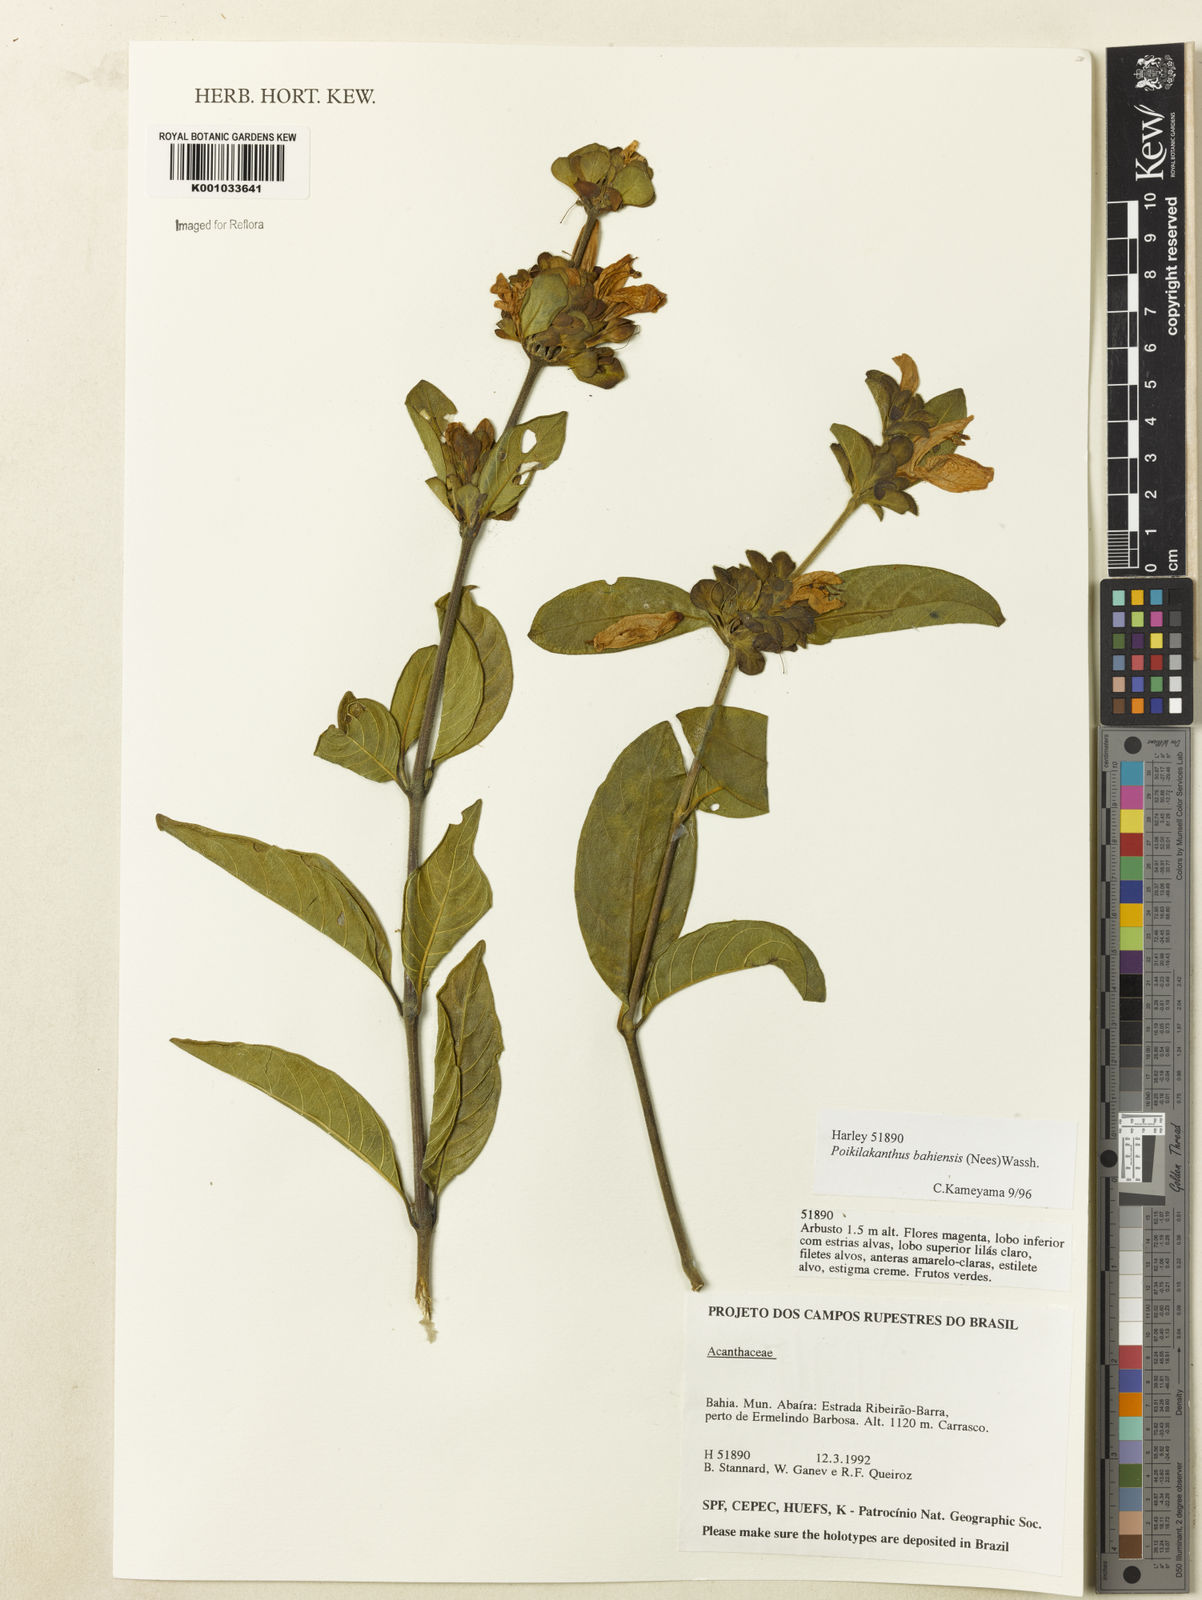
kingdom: Plantae
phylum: Tracheophyta
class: Magnoliopsida
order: Lamiales
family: Acanthaceae
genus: Poikilacanthus
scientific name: Poikilacanthus bahiensis
